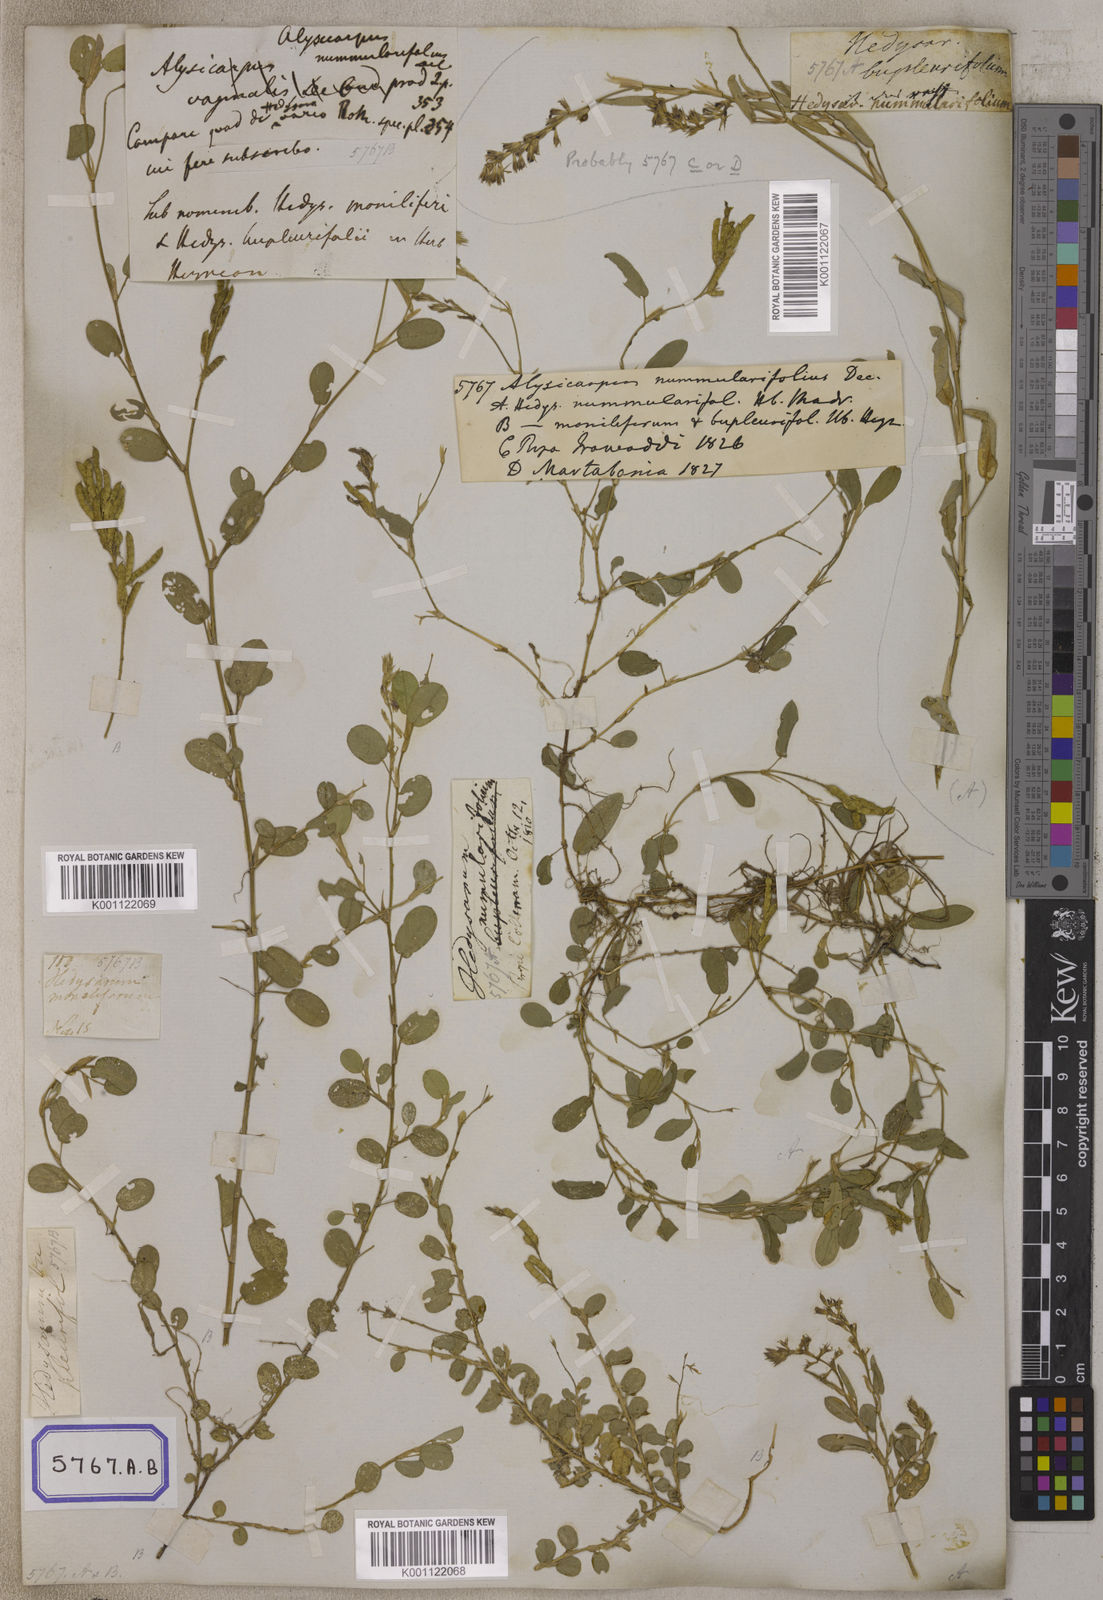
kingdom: Plantae
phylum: Tracheophyta
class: Magnoliopsida
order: Fabales
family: Fabaceae
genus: Alysicarpus
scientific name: Alysicarpus vaginalis
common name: White moneywort
